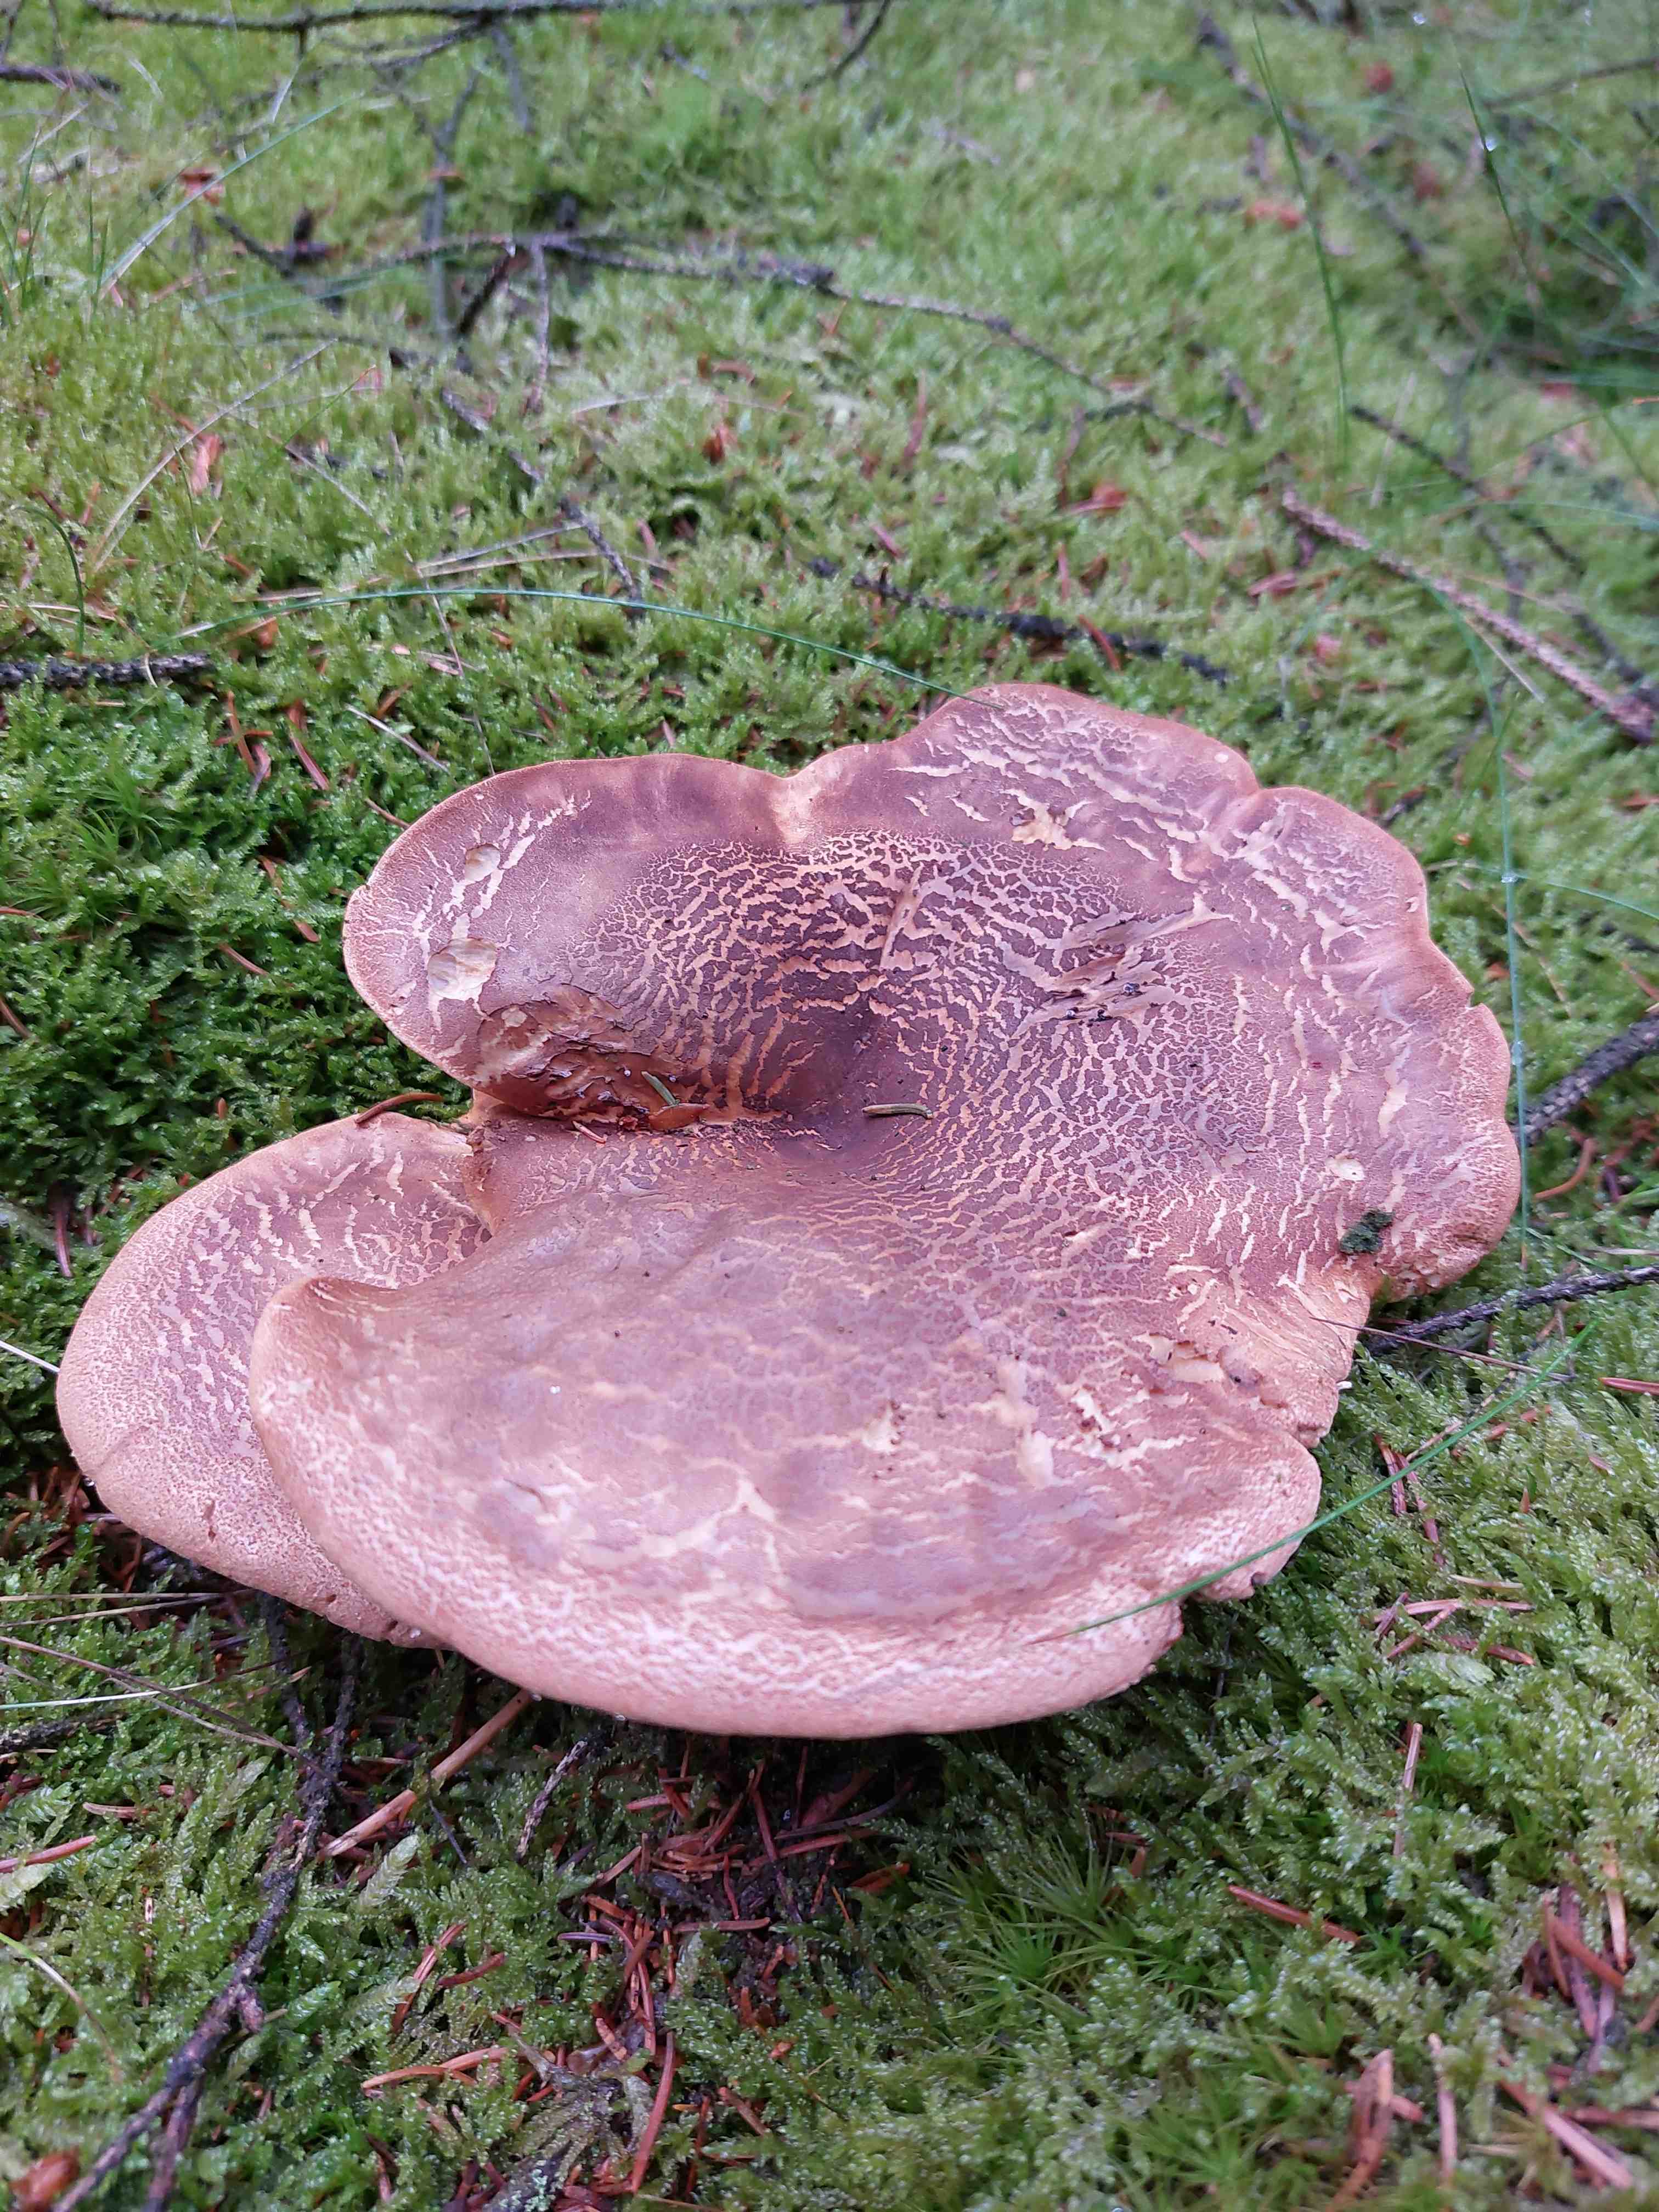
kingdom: Fungi
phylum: Basidiomycota
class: Agaricomycetes
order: Boletales
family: Tapinellaceae
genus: Tapinella
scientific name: Tapinella atrotomentosa
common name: sortfiltet viftesvamp
